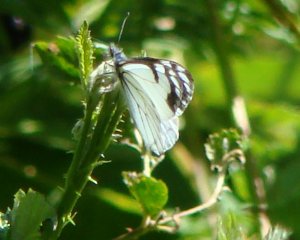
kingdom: Animalia
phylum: Arthropoda
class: Insecta
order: Lepidoptera
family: Pieridae
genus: Neophasia
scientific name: Neophasia menapia
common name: Pine White
